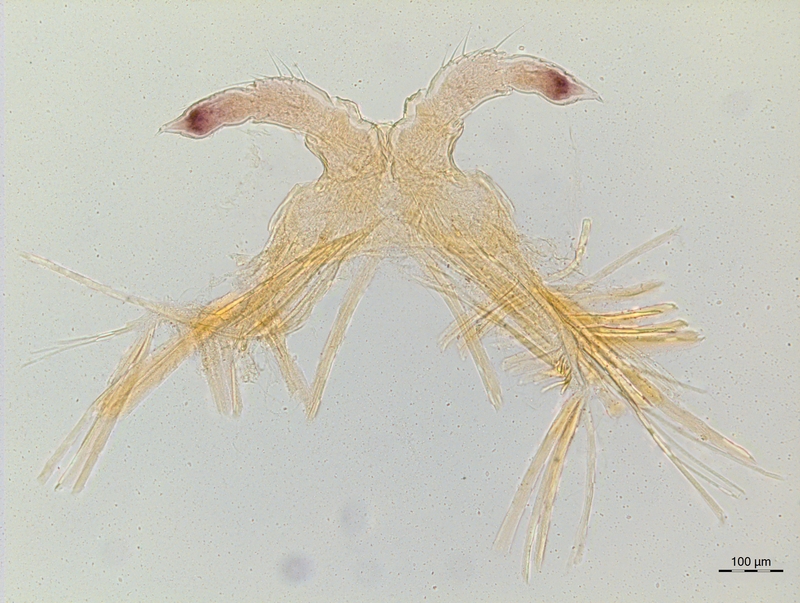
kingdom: Animalia
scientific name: Animalia
